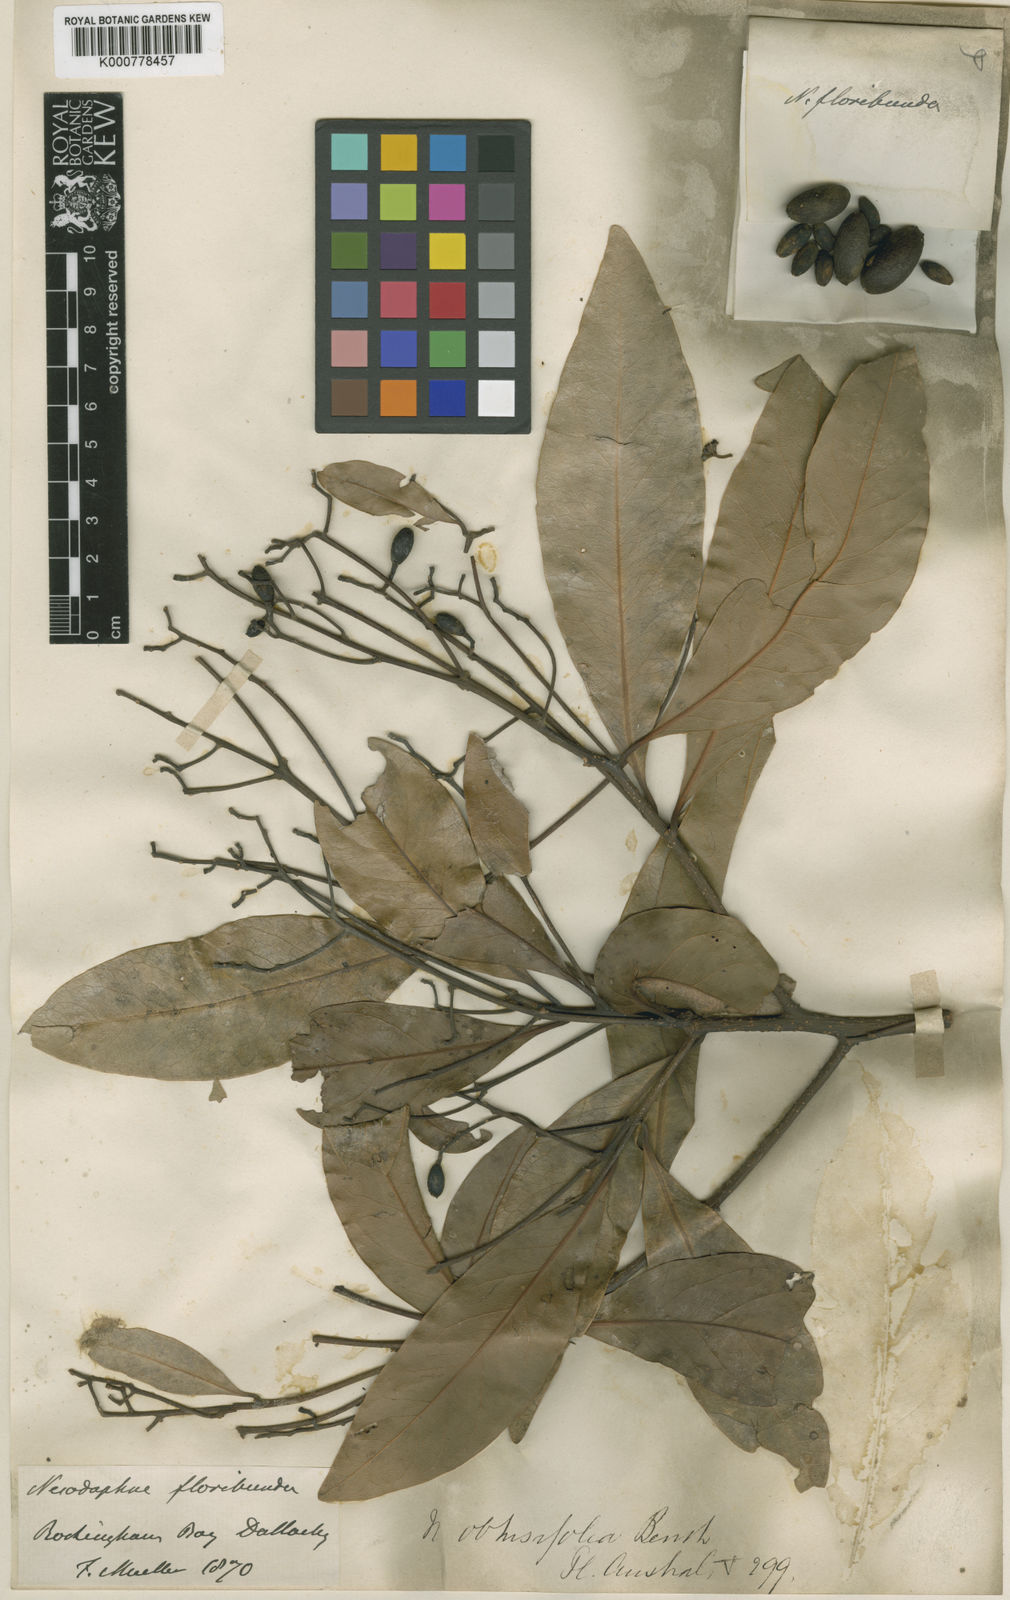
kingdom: Plantae
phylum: Tracheophyta
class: Magnoliopsida
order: Laurales
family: Lauraceae
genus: Beilschmiedia
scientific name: Beilschmiedia obtusifolia
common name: Queensland-sassafras
